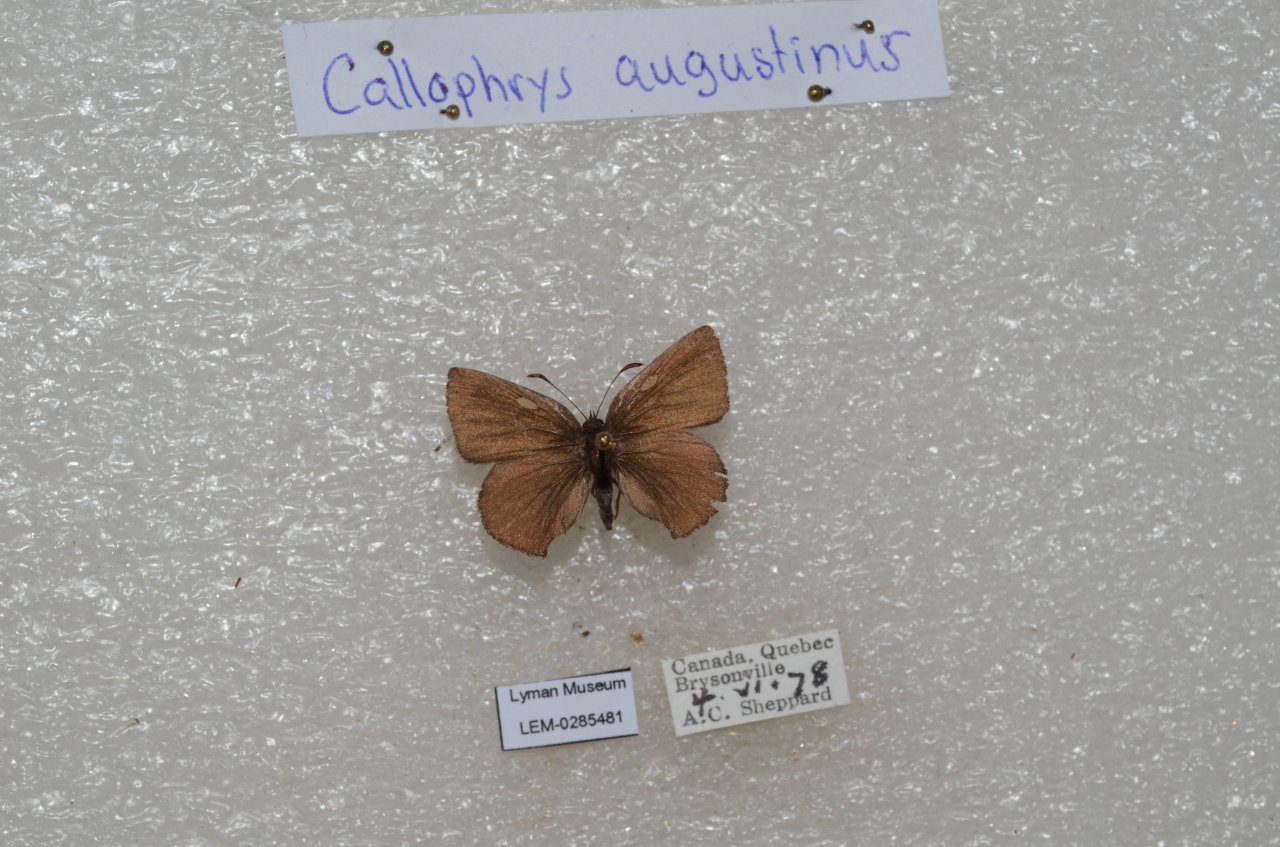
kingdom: Animalia
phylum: Arthropoda
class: Insecta
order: Lepidoptera
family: Lycaenidae
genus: Incisalia
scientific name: Incisalia irioides
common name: Brown Elfin
